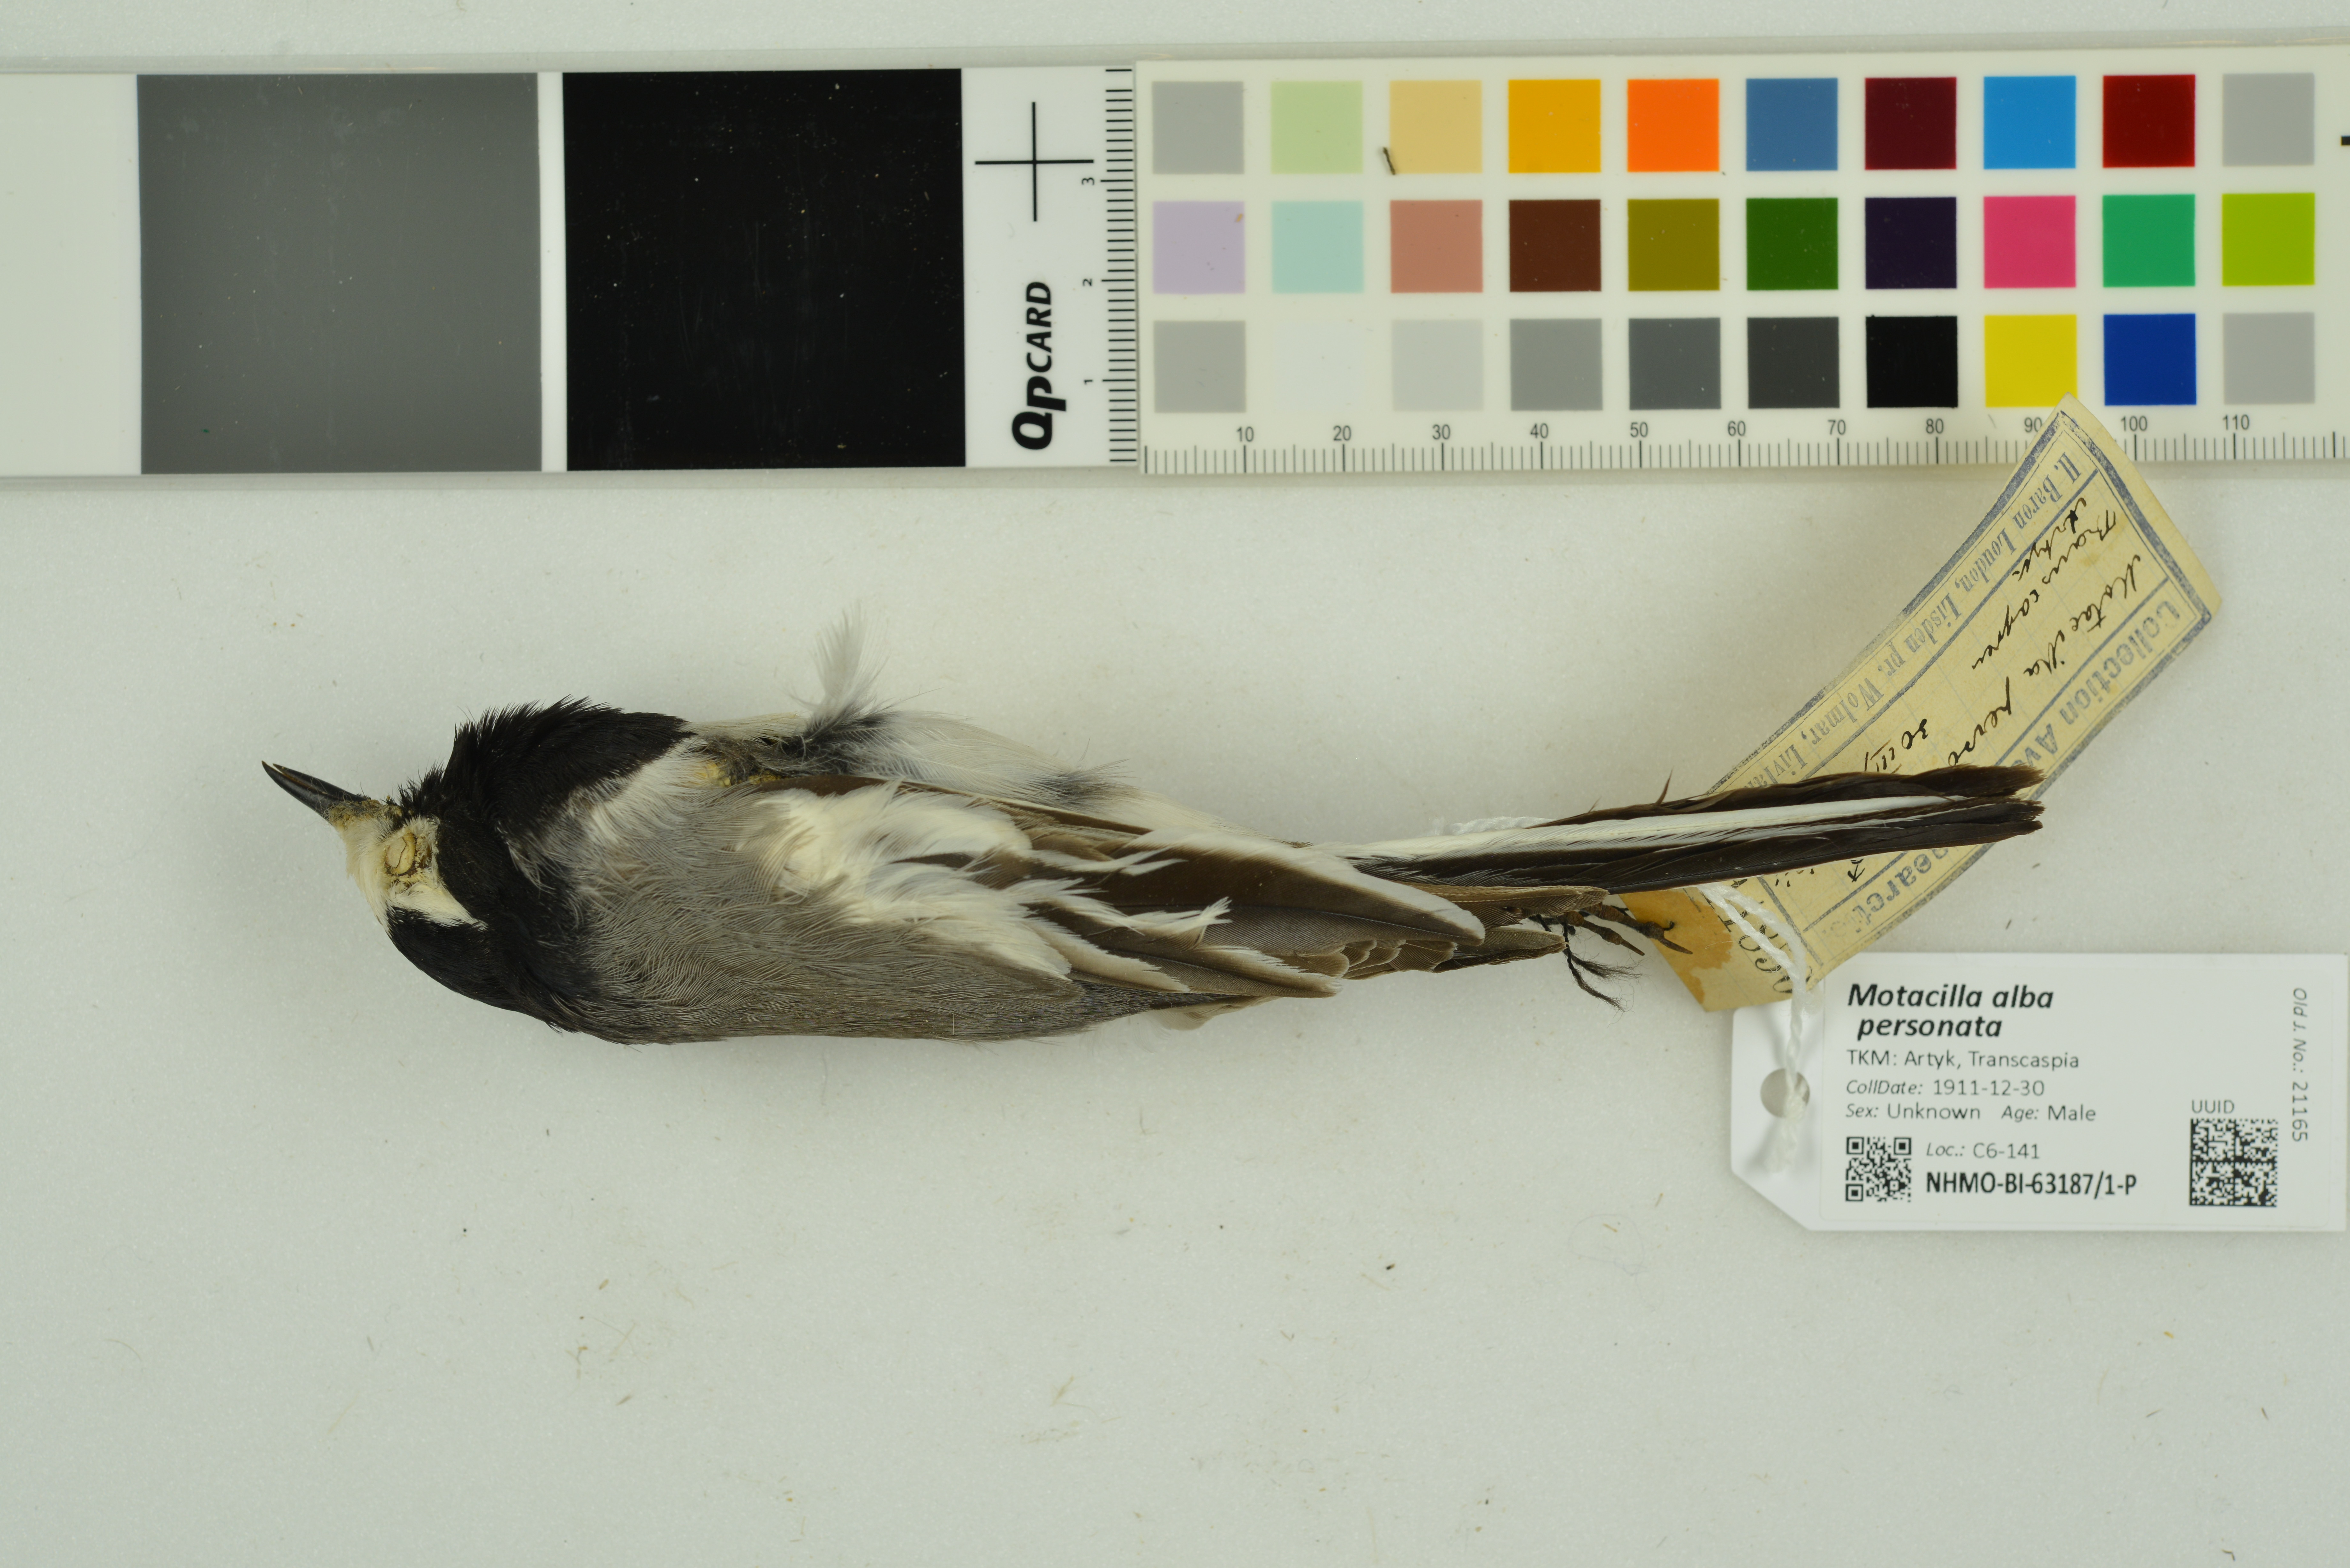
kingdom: Animalia
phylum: Chordata
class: Aves
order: Passeriformes
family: Motacillidae
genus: Motacilla
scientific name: Motacilla alba
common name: White wagtail
